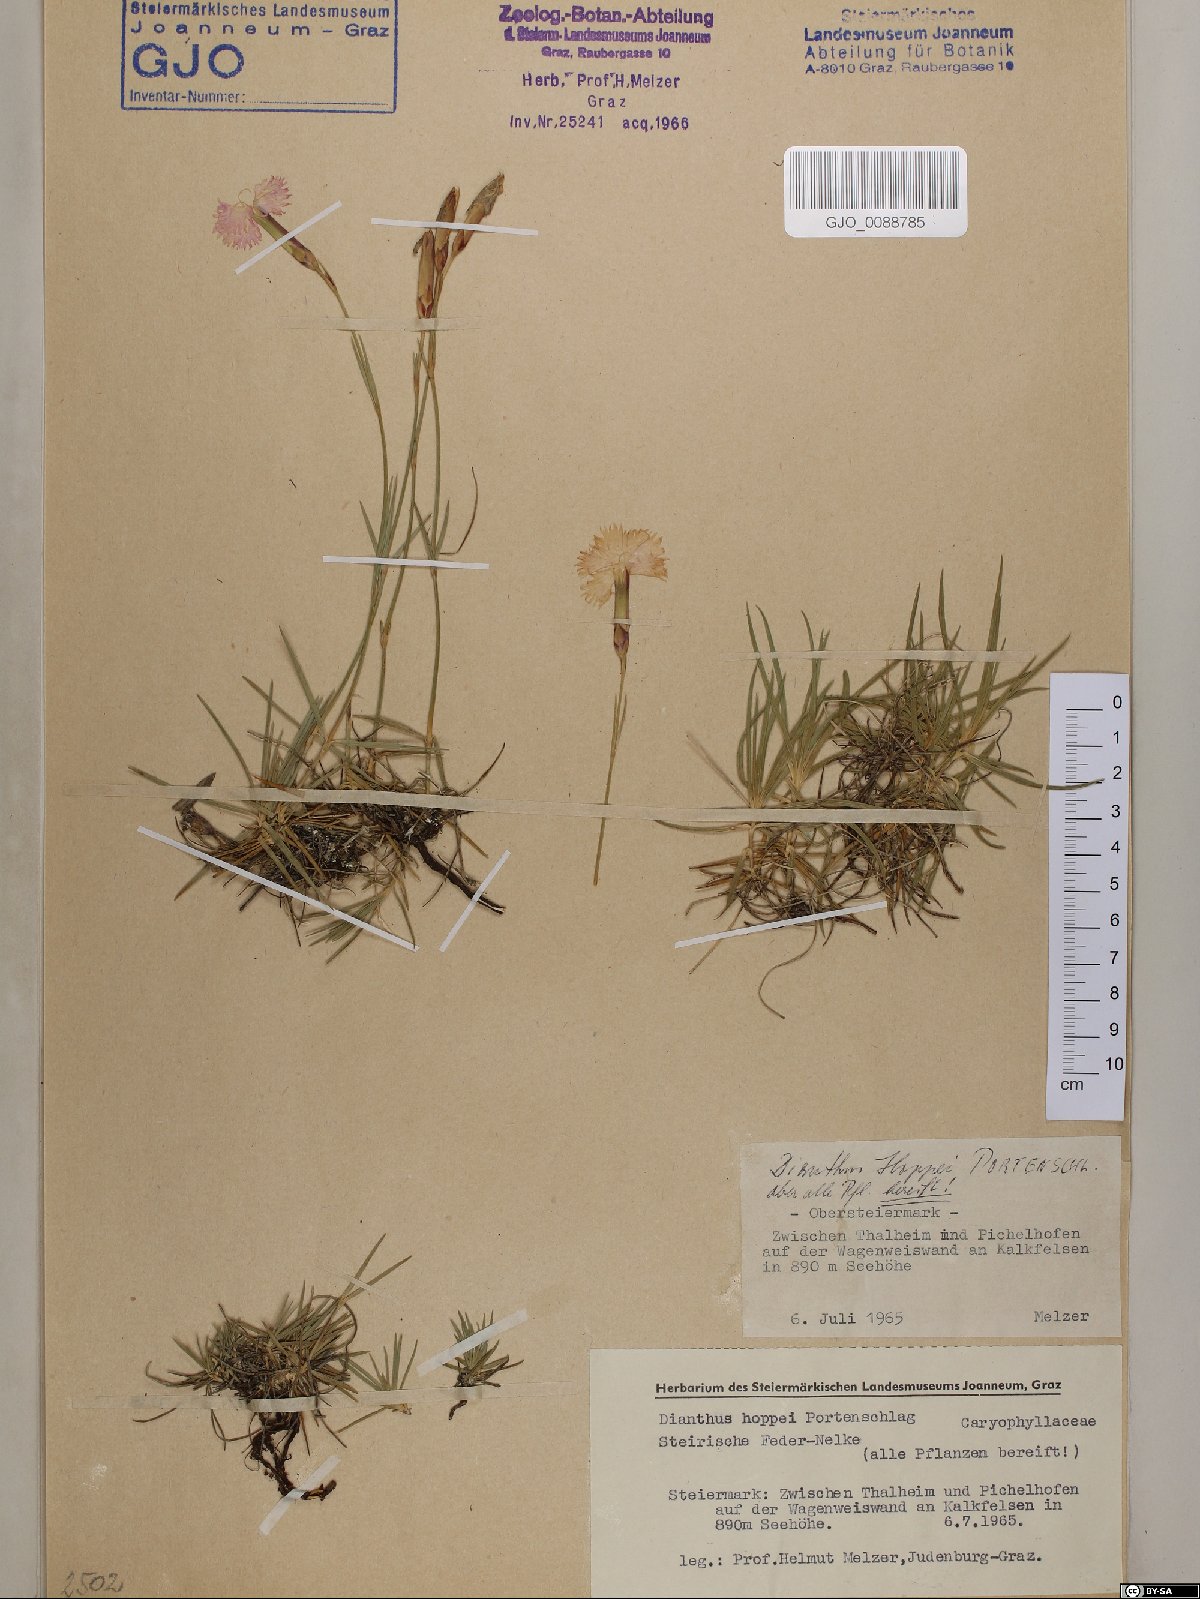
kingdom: Plantae
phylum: Tracheophyta
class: Magnoliopsida
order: Caryophyllales
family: Caryophyllaceae
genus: Dianthus
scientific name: Dianthus plumarius
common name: Pink
